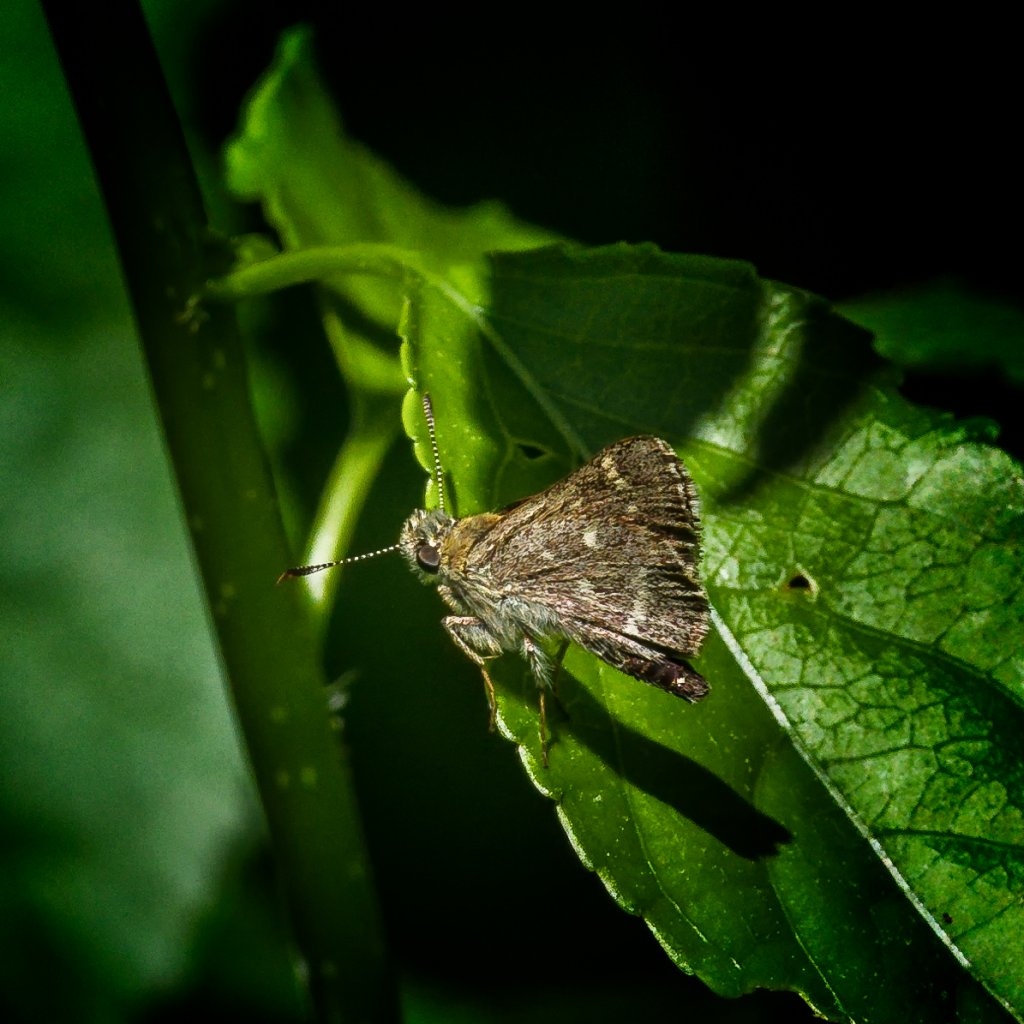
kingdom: Animalia
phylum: Arthropoda
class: Insecta
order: Lepidoptera
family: Hesperiidae
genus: Mastor
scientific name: Mastor hegon
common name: Pepper and Salt Skipper
